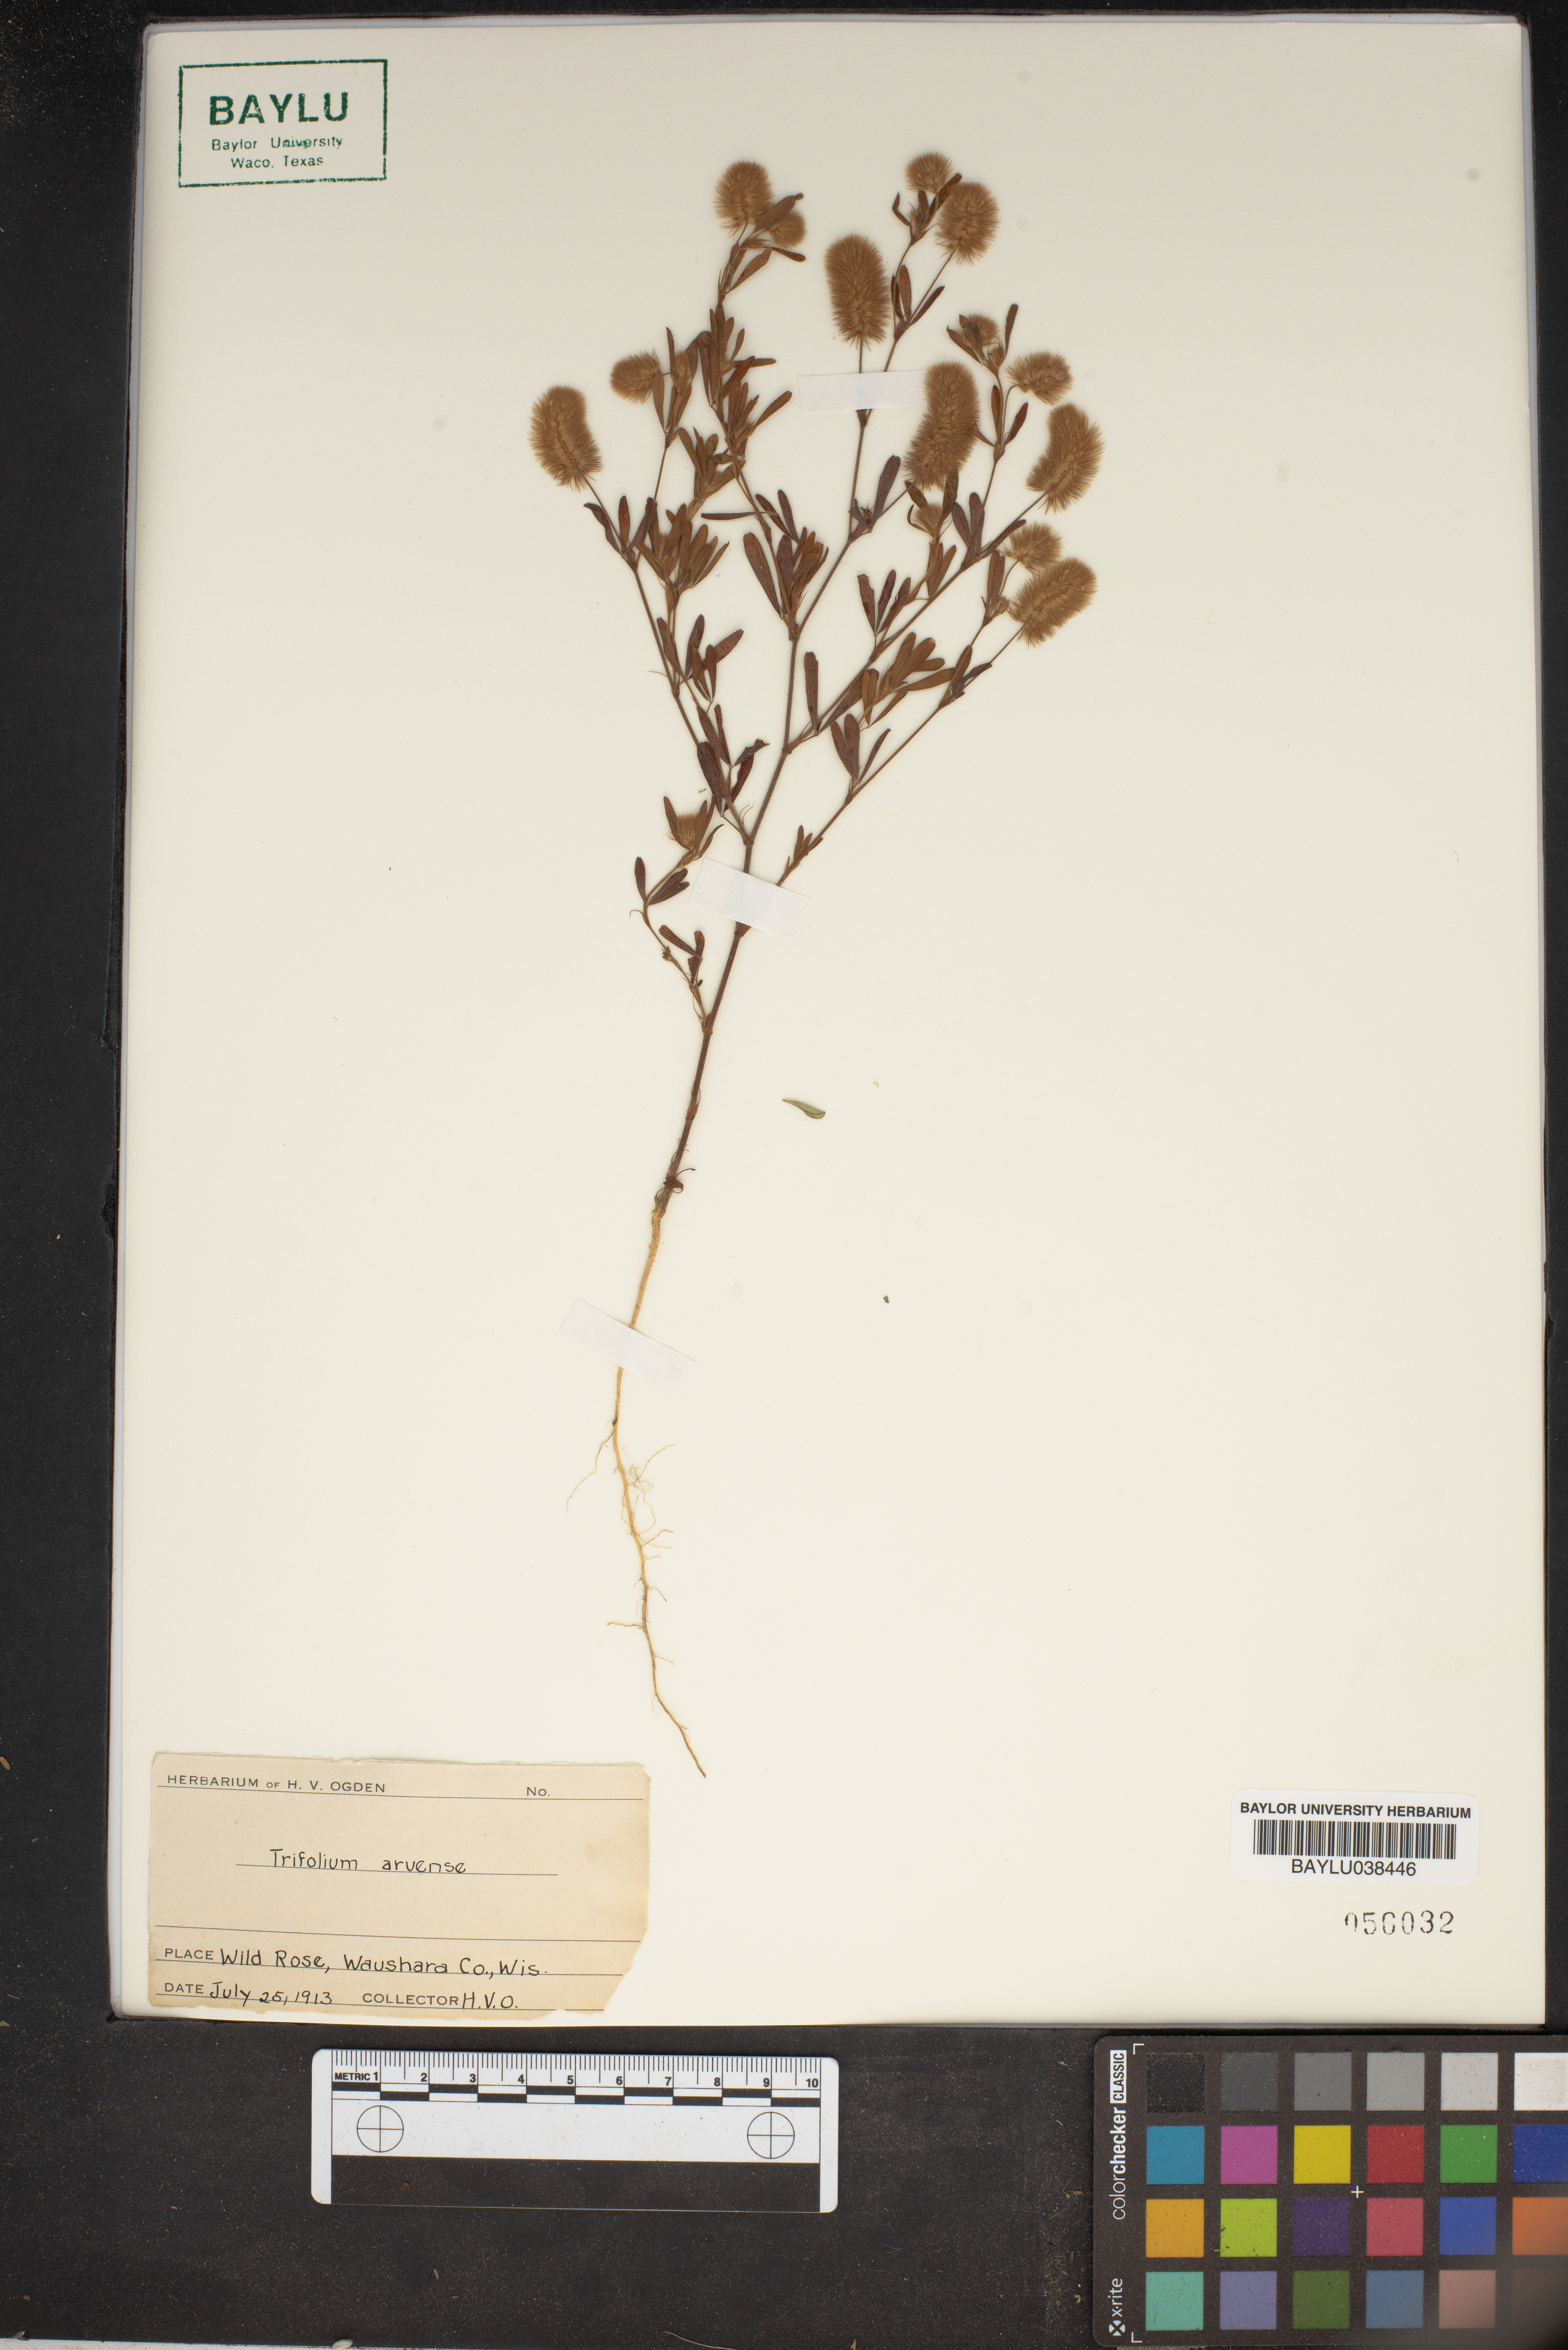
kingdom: Plantae
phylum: Tracheophyta
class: Magnoliopsida
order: Fabales
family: Fabaceae
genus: Trifolium
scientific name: Trifolium arvense
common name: Hare's-foot clover
